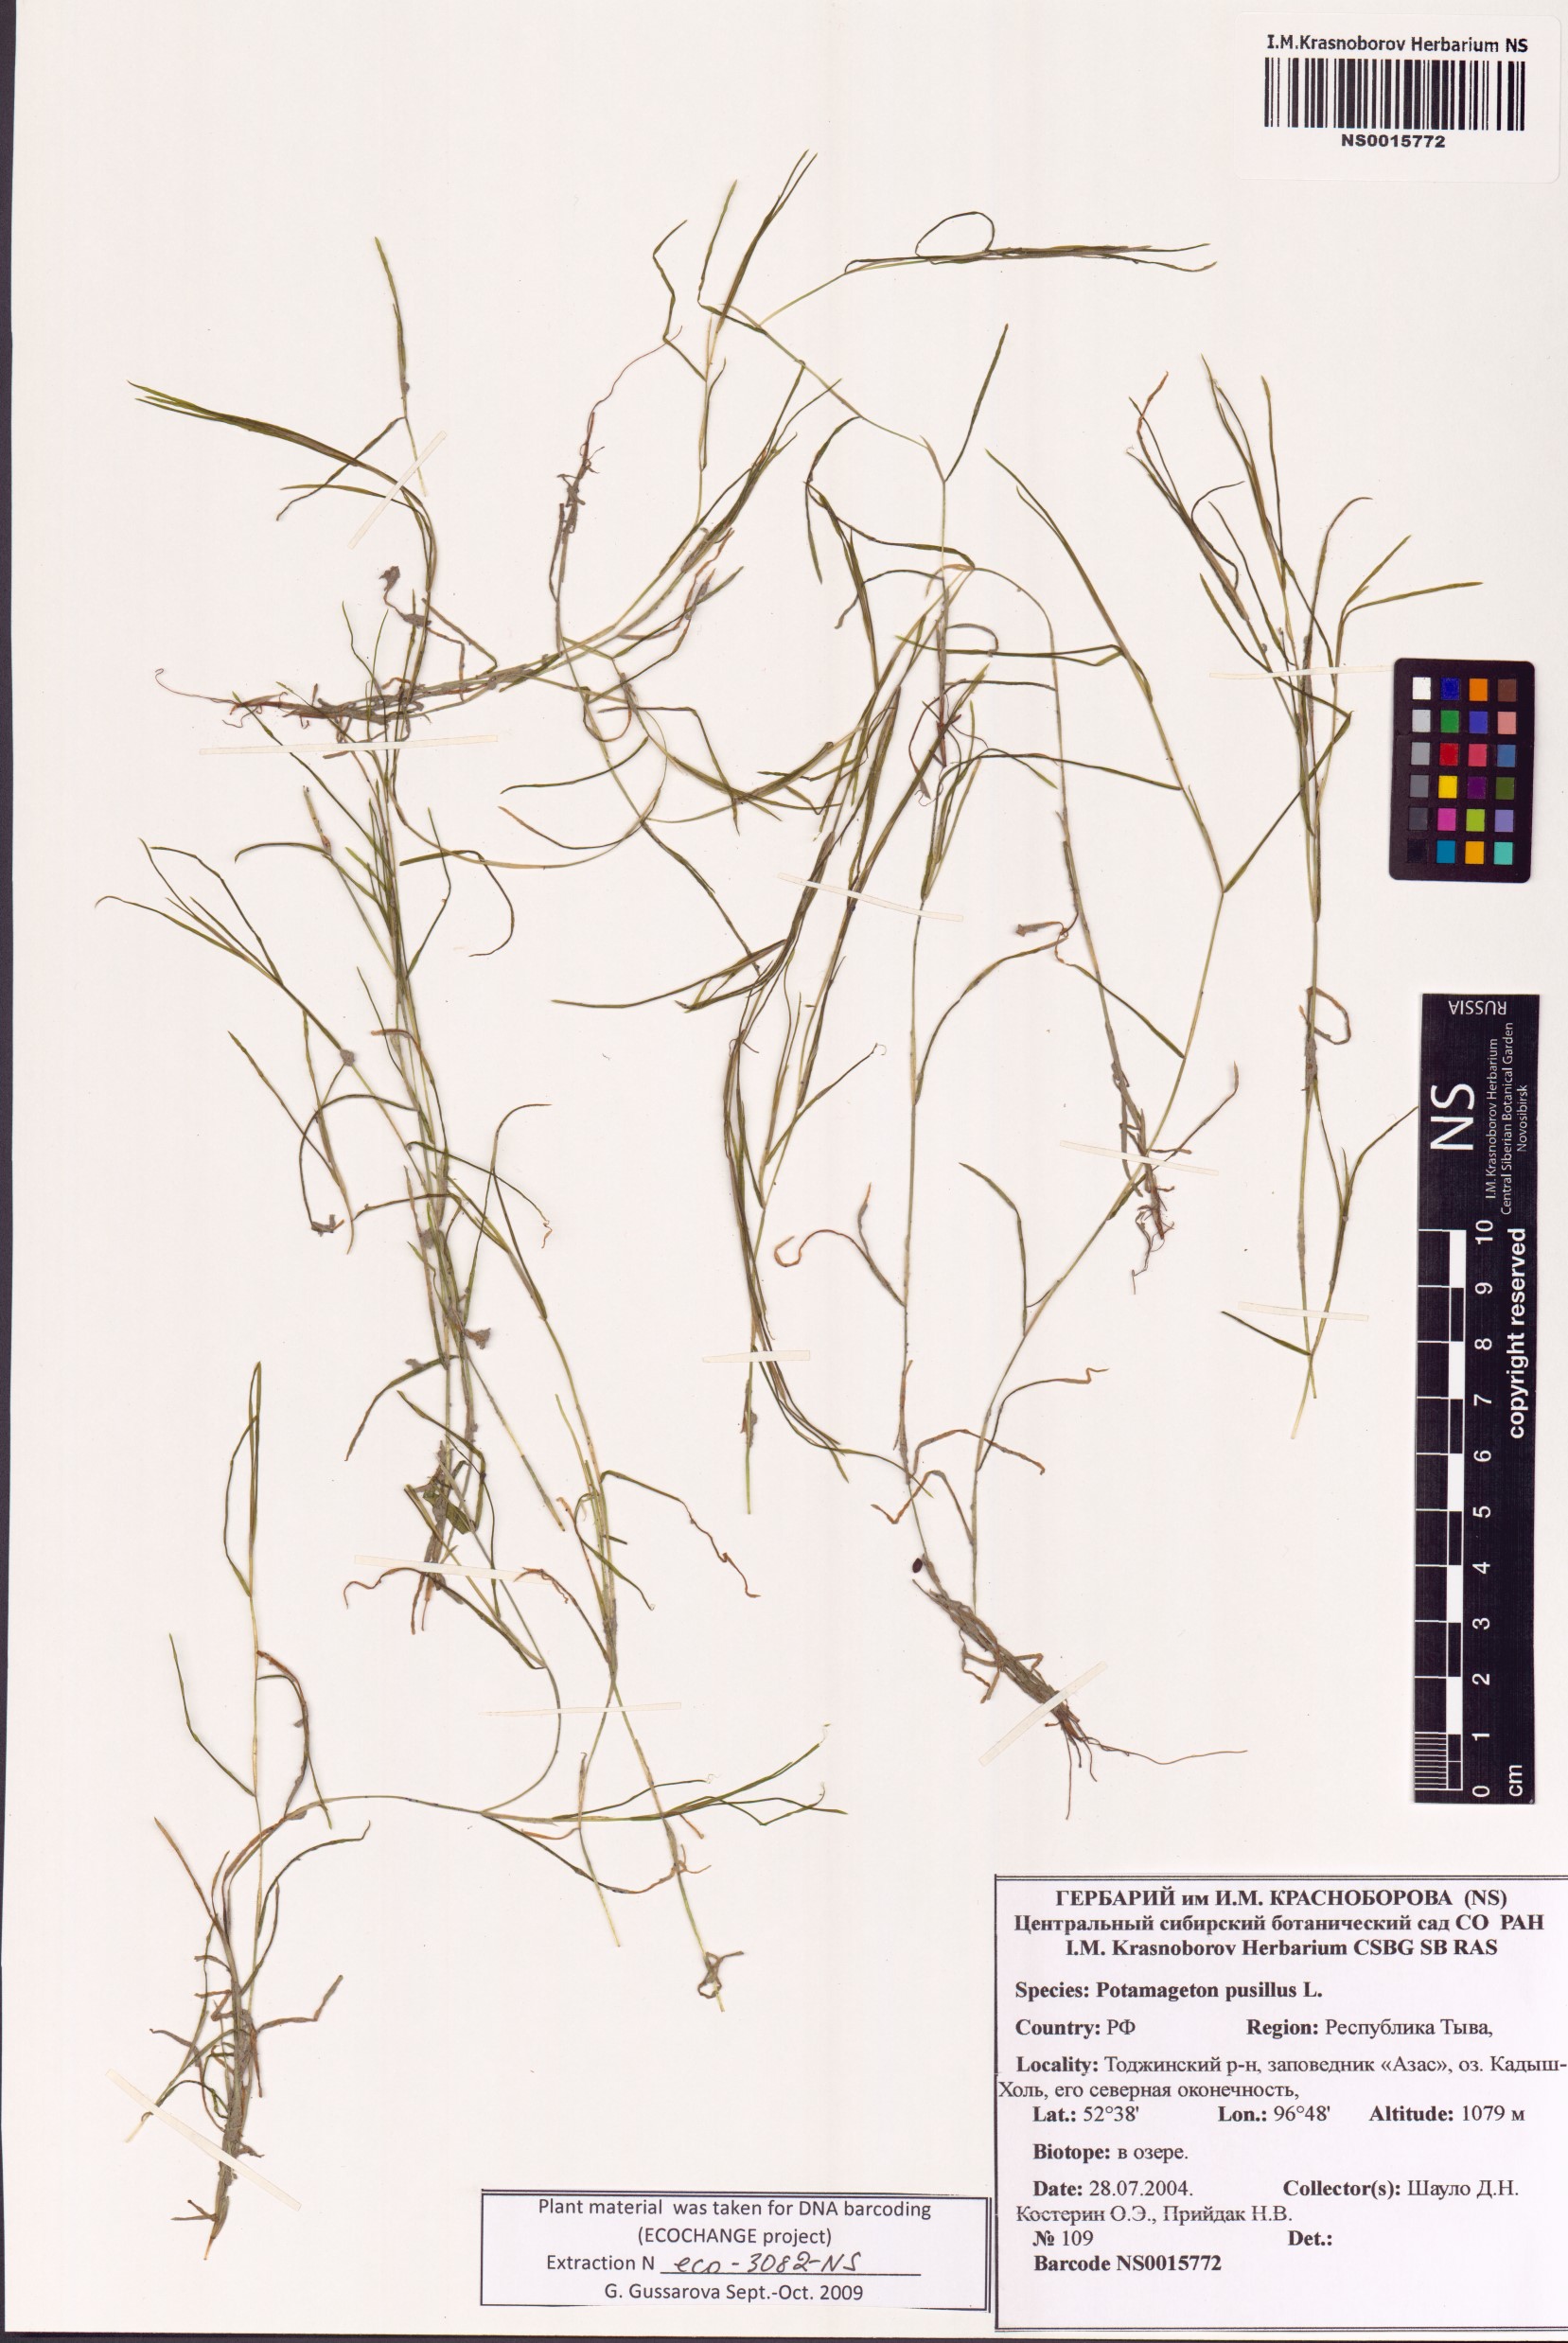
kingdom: Plantae
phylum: Tracheophyta
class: Liliopsida
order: Alismatales
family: Potamogetonaceae
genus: Potamogeton
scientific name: Potamogeton pusillus
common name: Lesser pondweed
